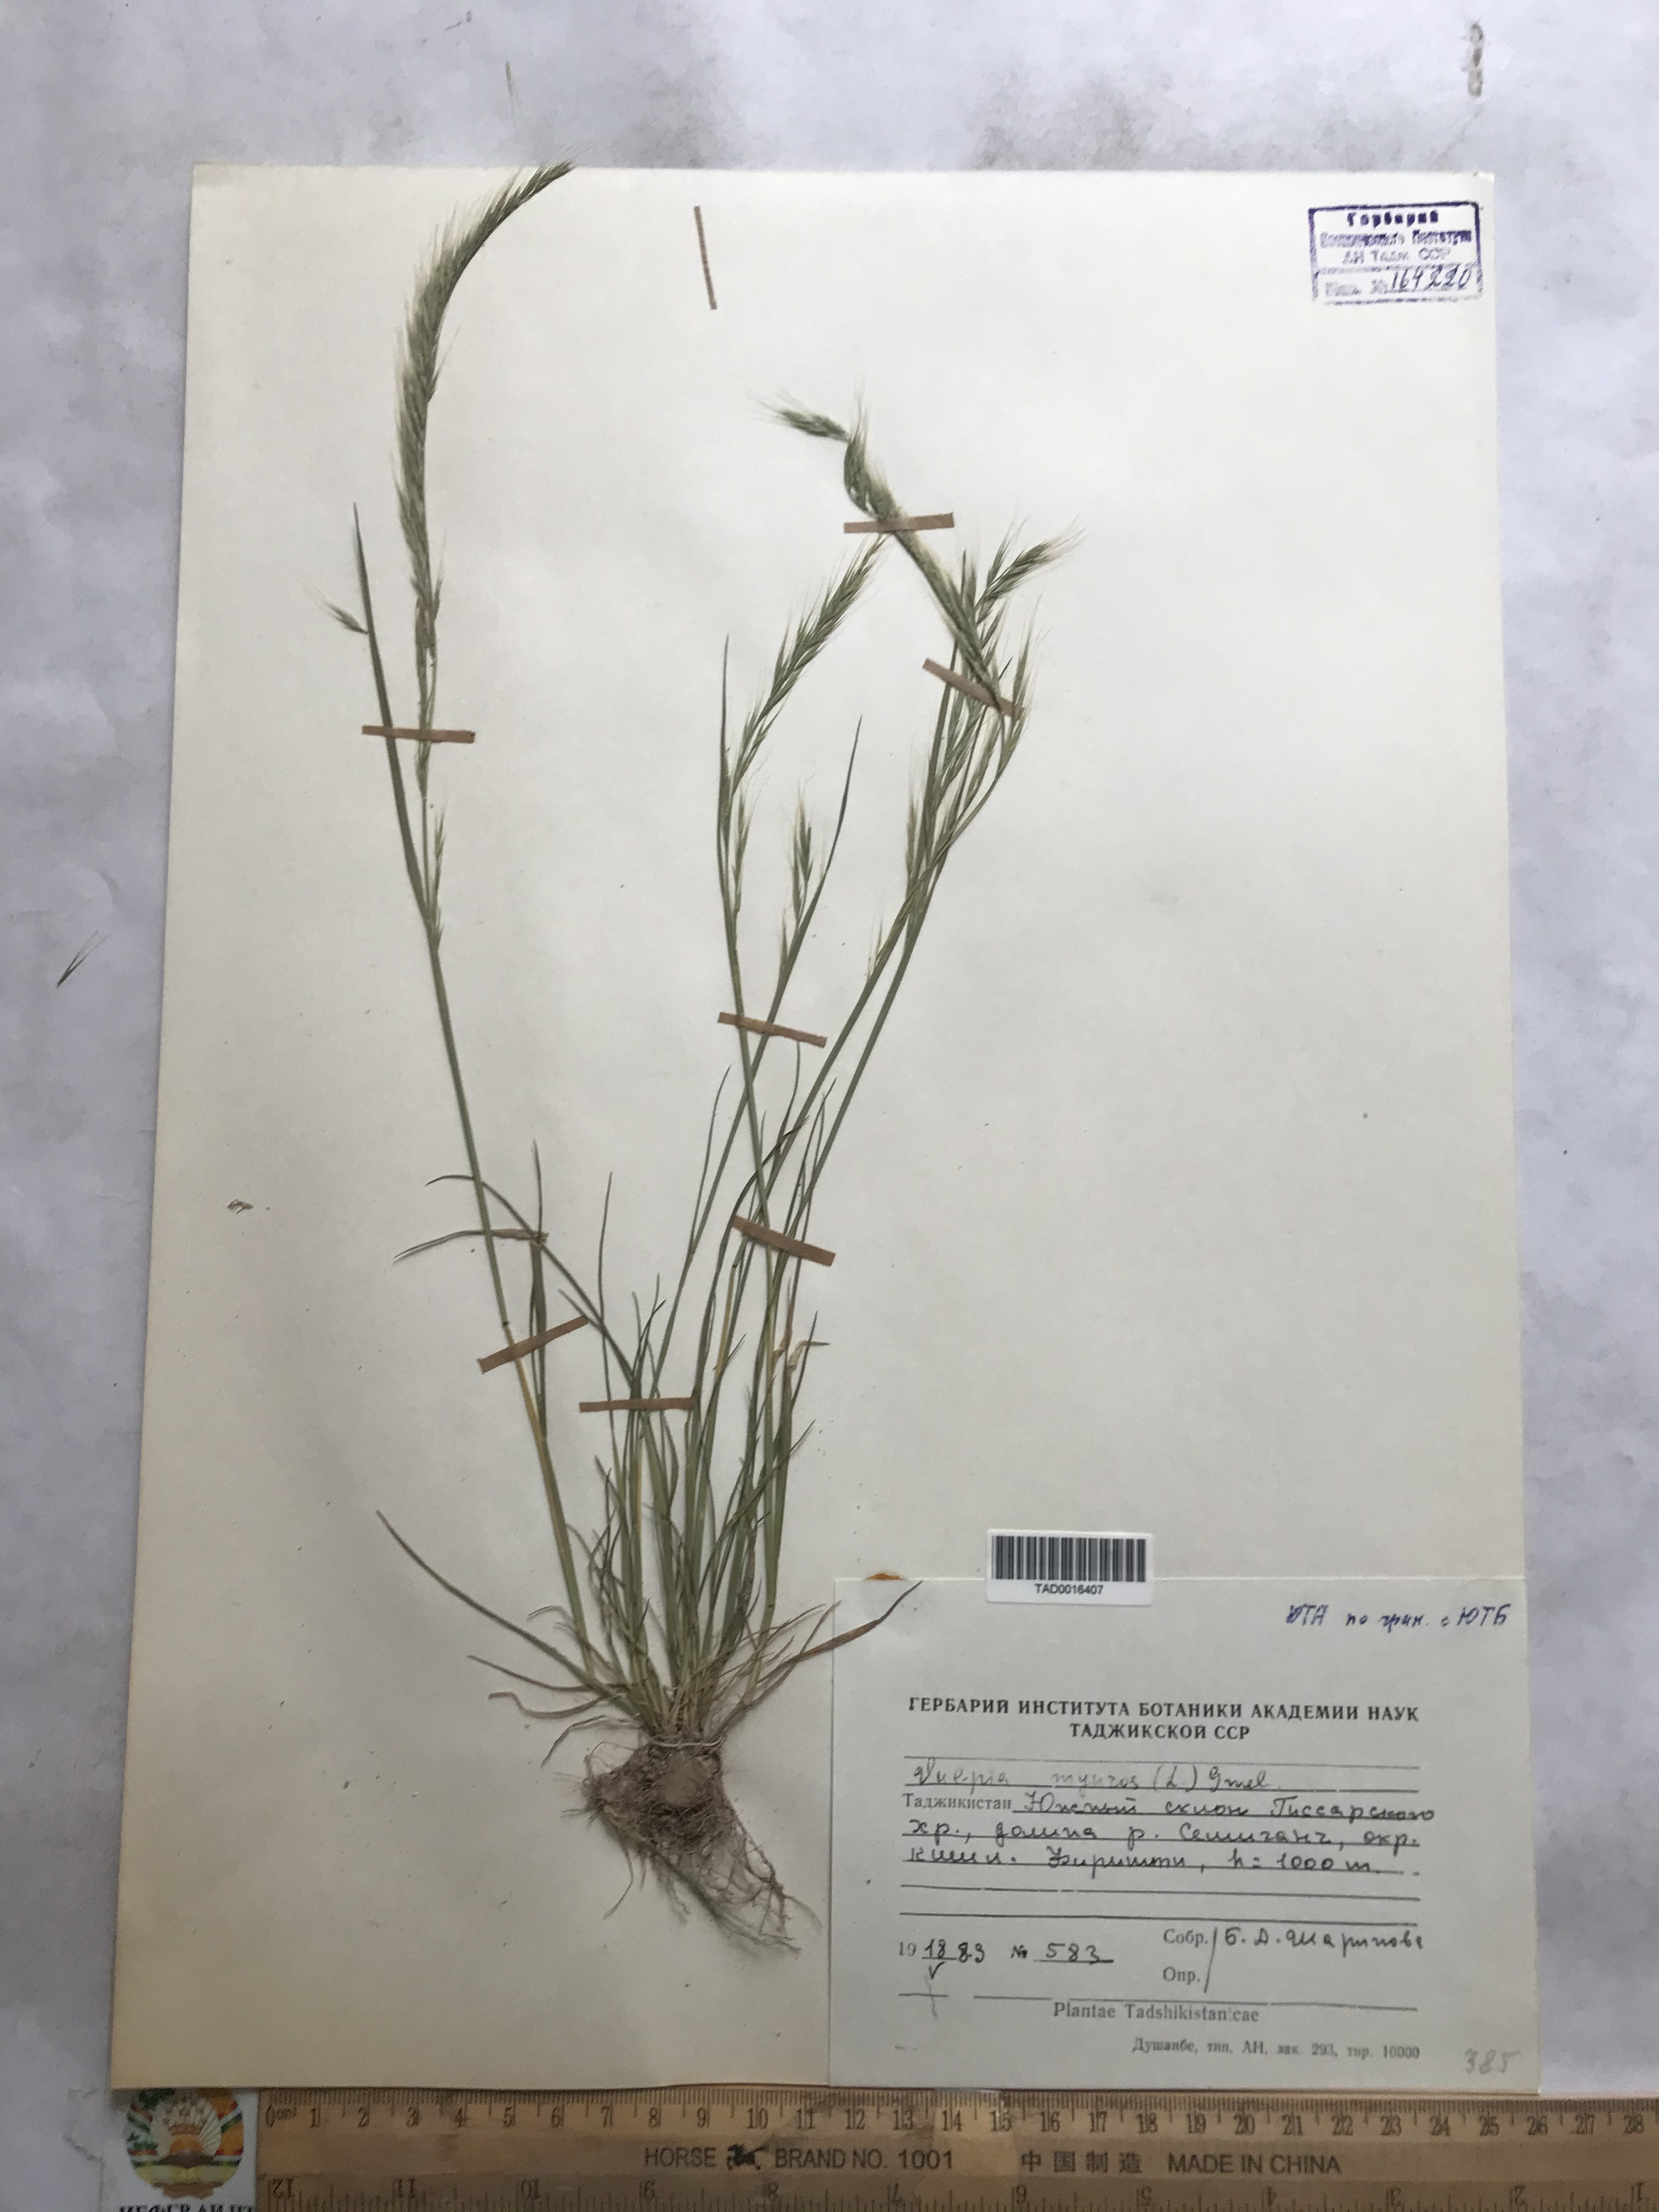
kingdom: Plantae
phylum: Tracheophyta
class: Liliopsida
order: Poales
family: Poaceae
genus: Festuca
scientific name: Festuca myuros
